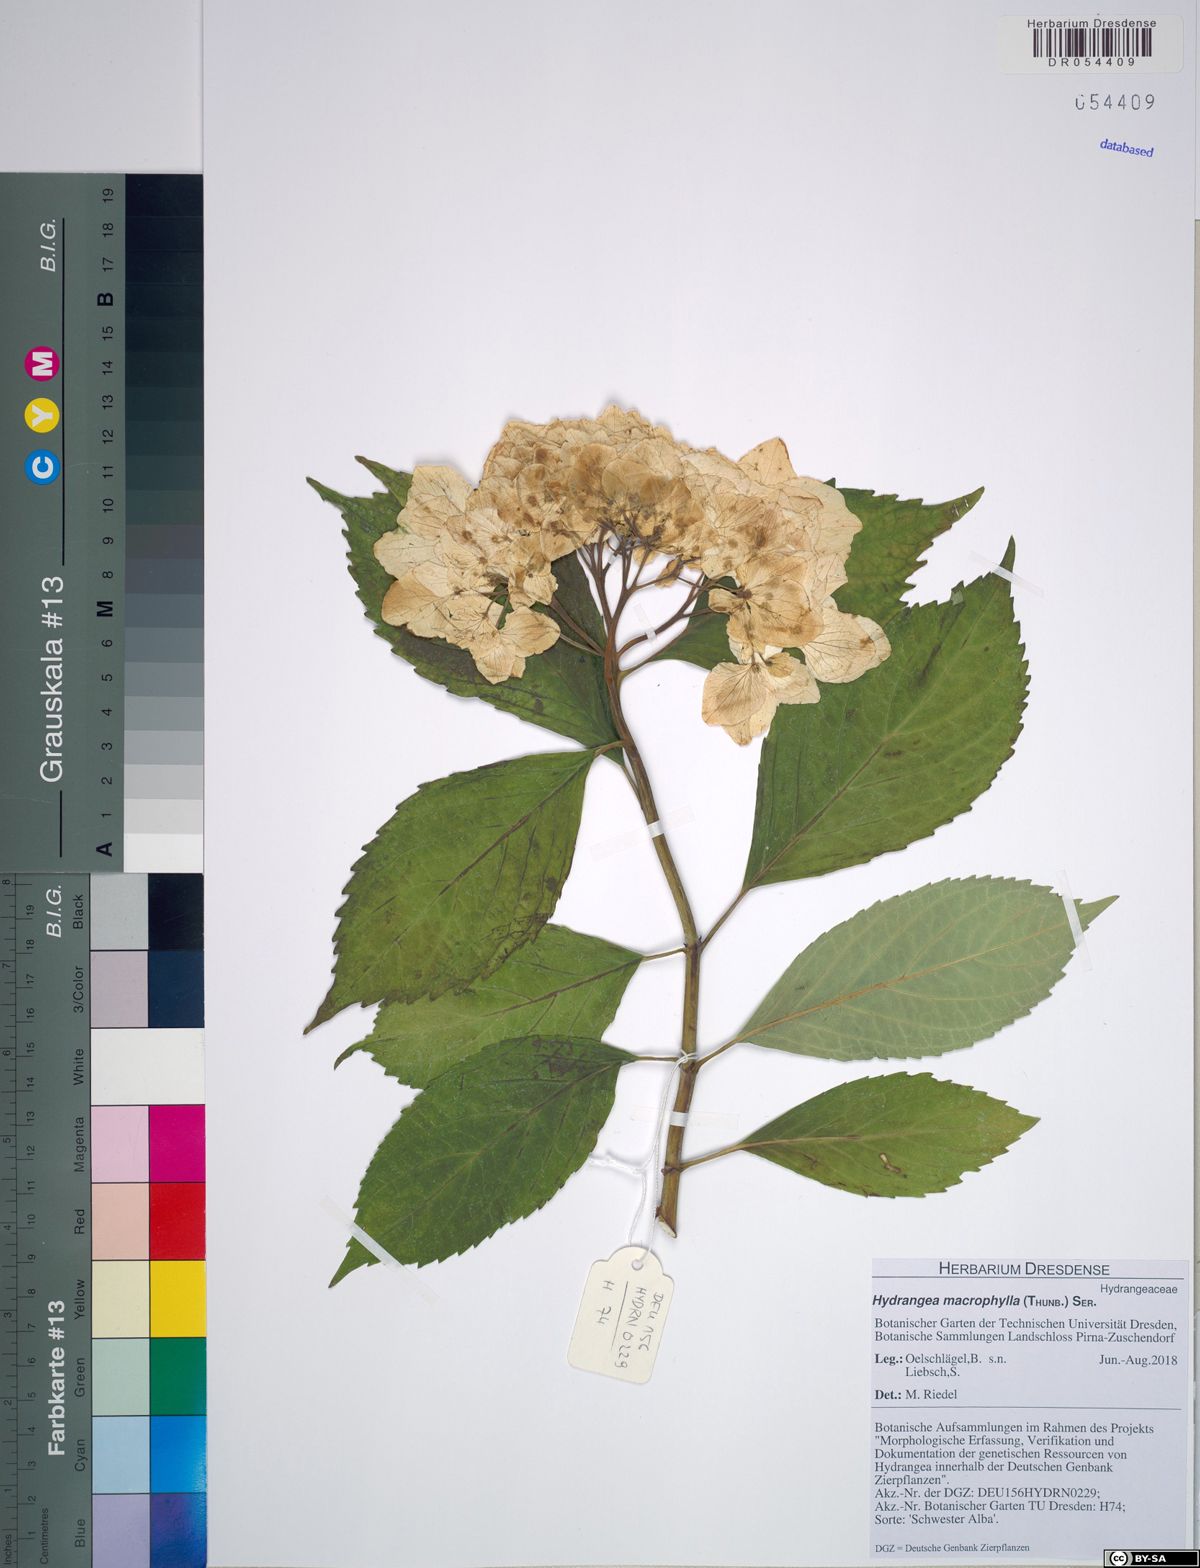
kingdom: Plantae
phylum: Tracheophyta
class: Magnoliopsida
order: Cornales
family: Hydrangeaceae
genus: Hydrangea
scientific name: Hydrangea macrophylla
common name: Hydrangea
